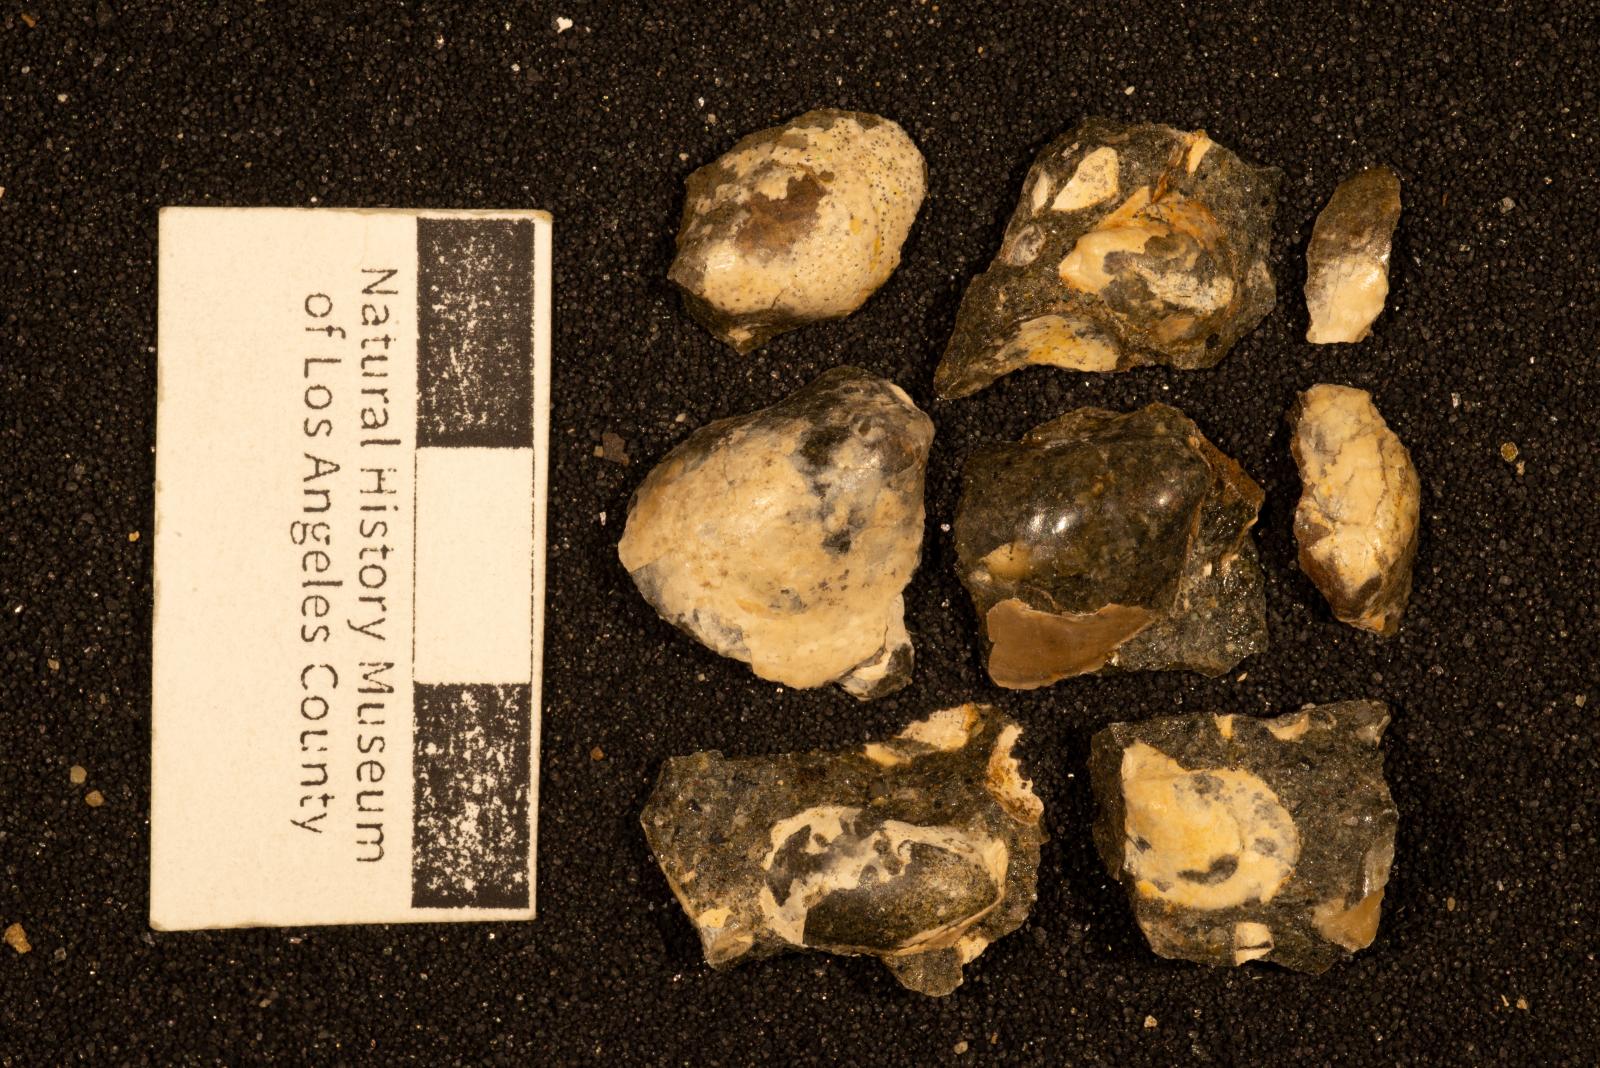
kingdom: Animalia
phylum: Mollusca
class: Bivalvia
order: Ostreida
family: Pteriidae
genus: Pteria
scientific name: Pteria pellucida
